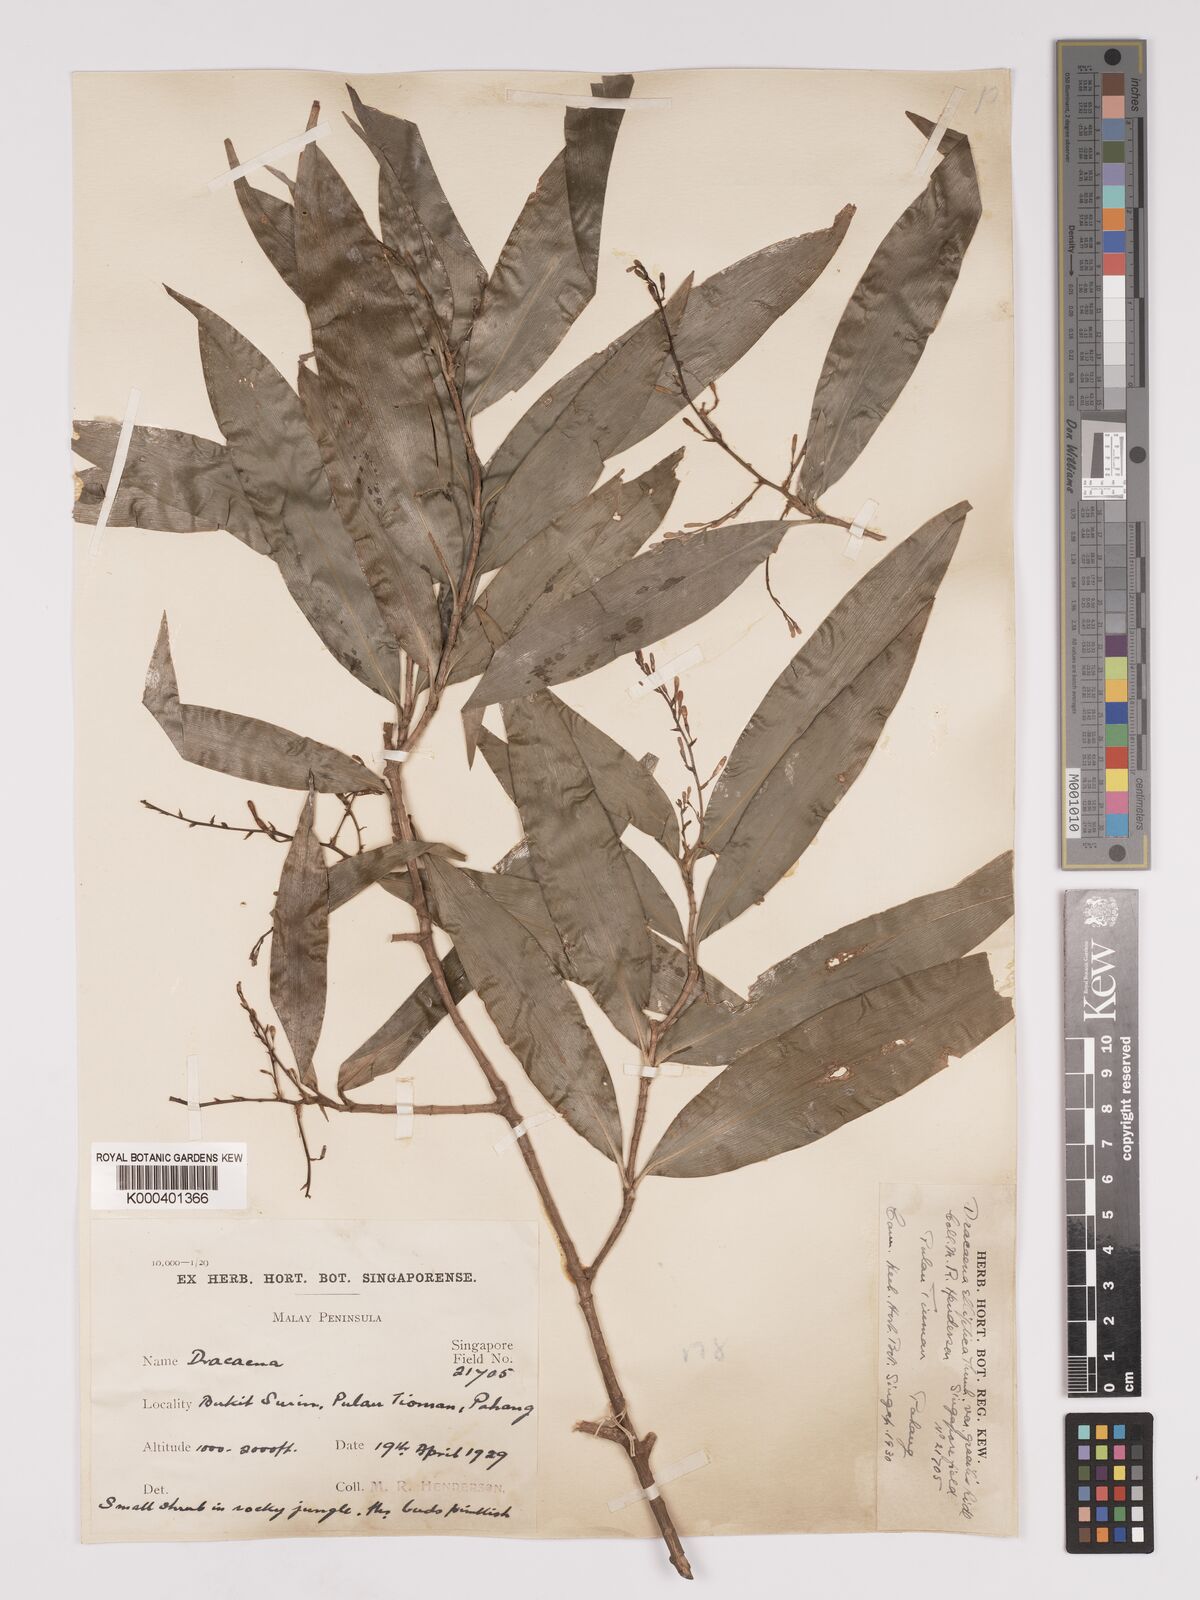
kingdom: Plantae
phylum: Tracheophyta
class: Liliopsida
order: Asparagales
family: Asparagaceae
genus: Dracaena
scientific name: Dracaena elliptica
